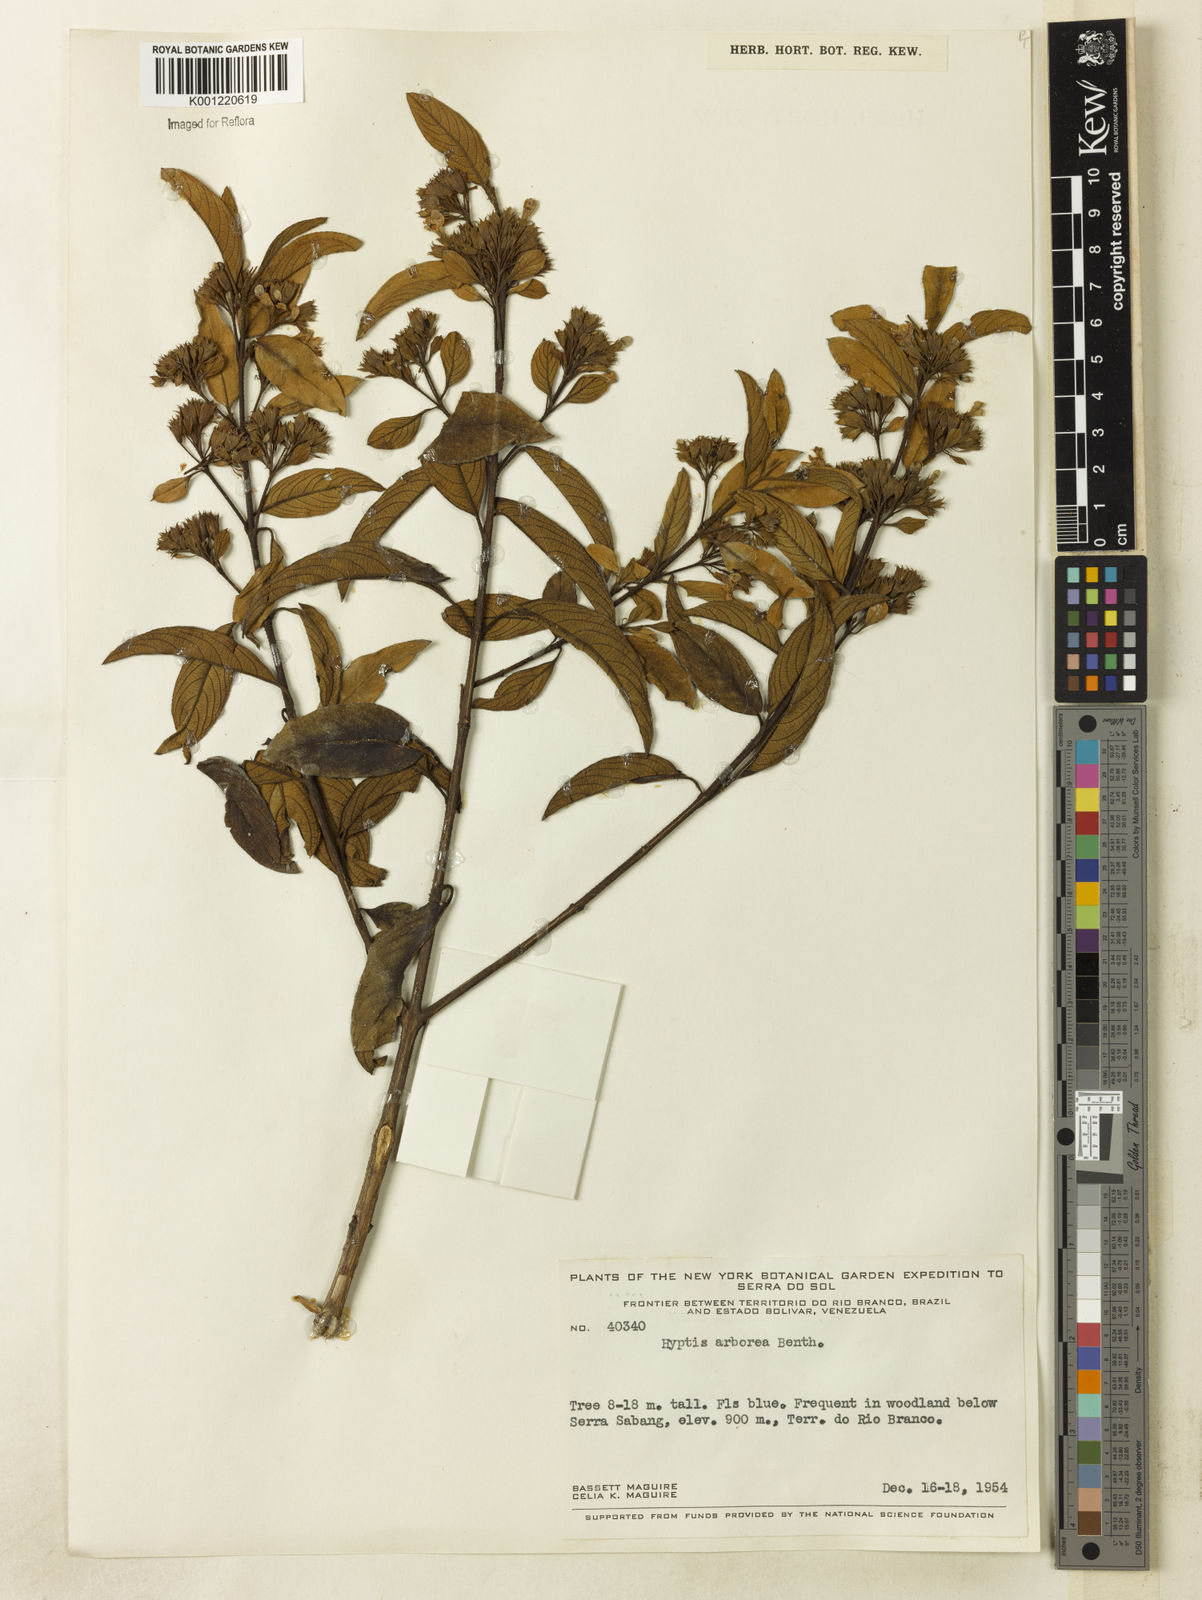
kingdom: Plantae
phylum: Tracheophyta
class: Magnoliopsida
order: Lamiales
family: Lamiaceae
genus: Hyptidendron
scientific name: Hyptidendron arboreum
